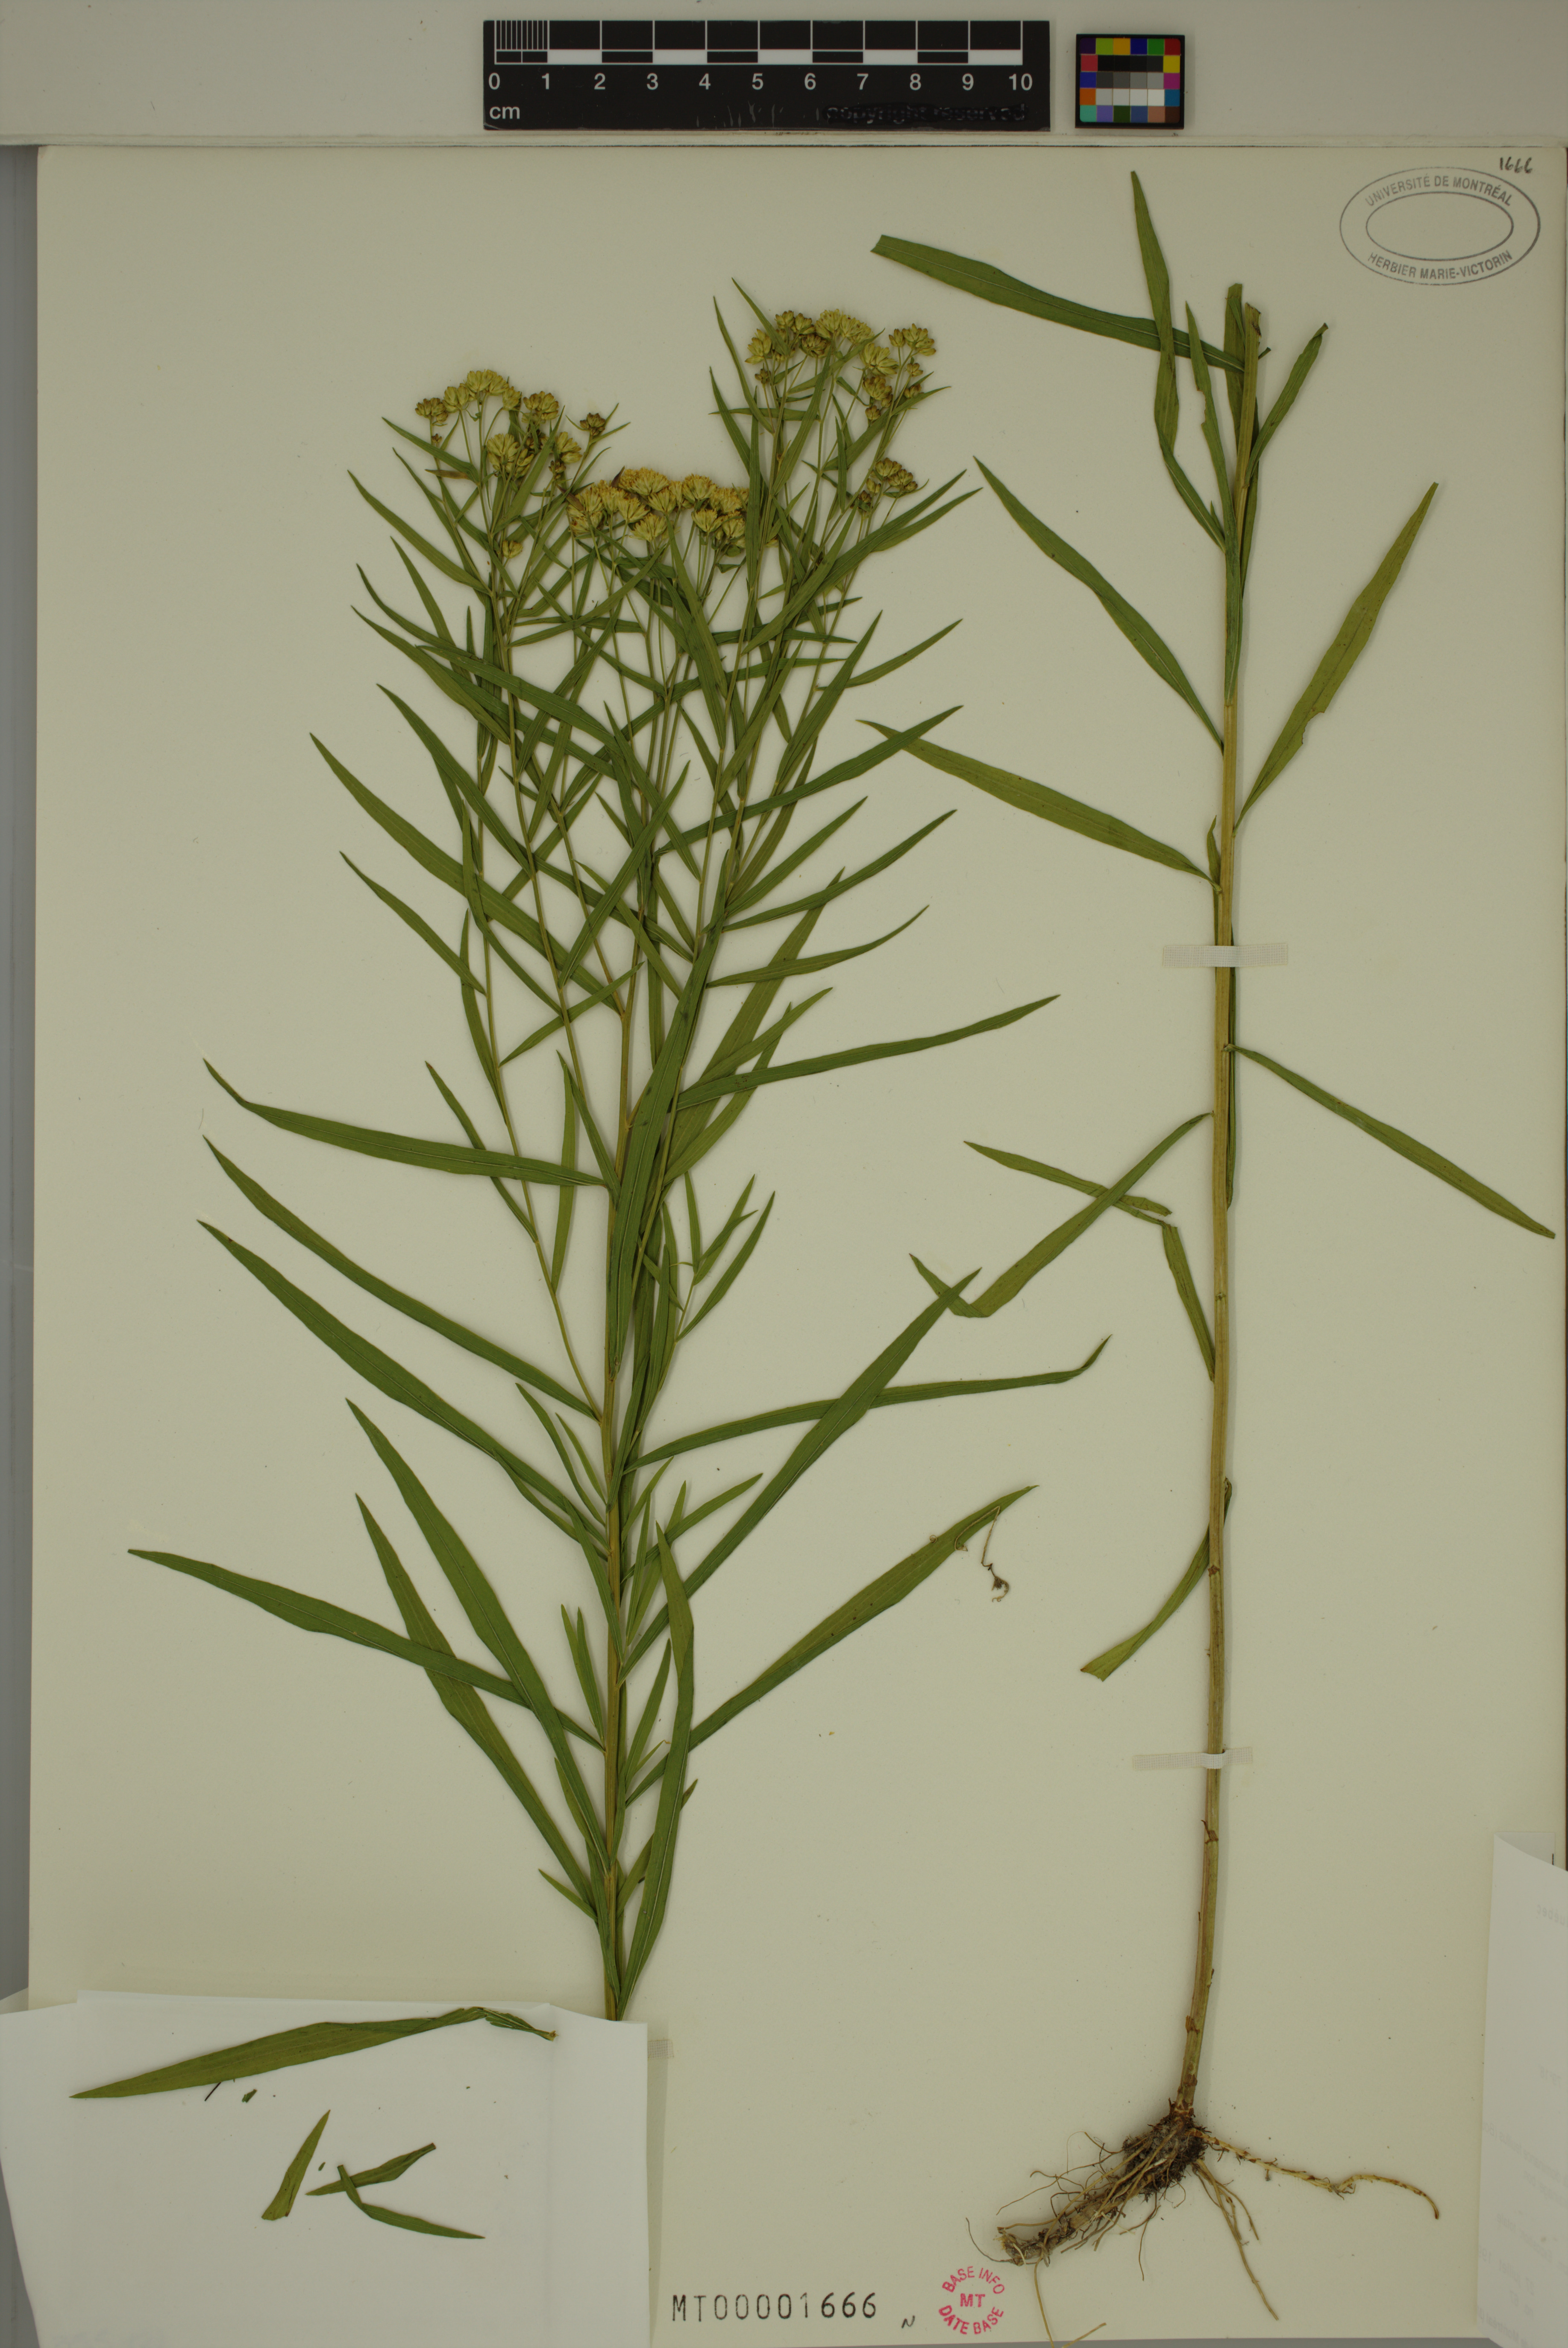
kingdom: Plantae
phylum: Tracheophyta
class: Magnoliopsida
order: Asterales
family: Asteraceae
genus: Euthamia
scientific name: Euthamia graminifolia
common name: Common goldentop
